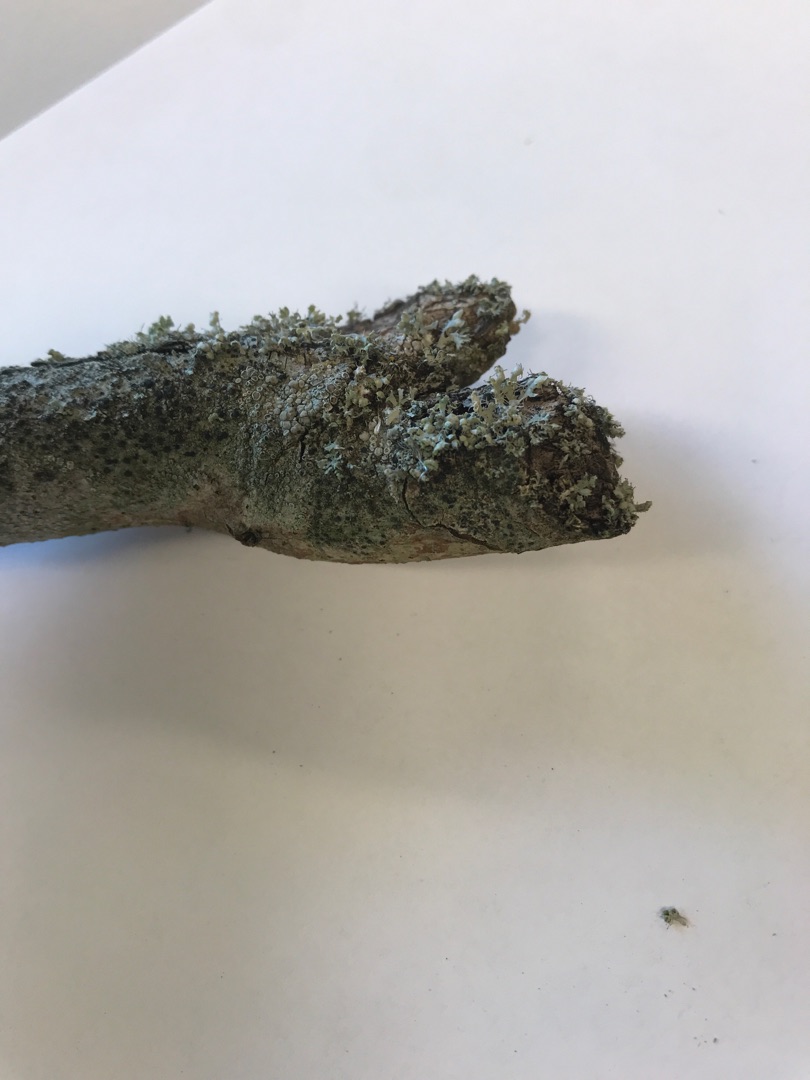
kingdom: Fungi
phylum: Ascomycota
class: Lecanoromycetes
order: Caliciales
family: Physciaceae
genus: Physcia
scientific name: Physcia adscendens
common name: Hætte-rosetlav
